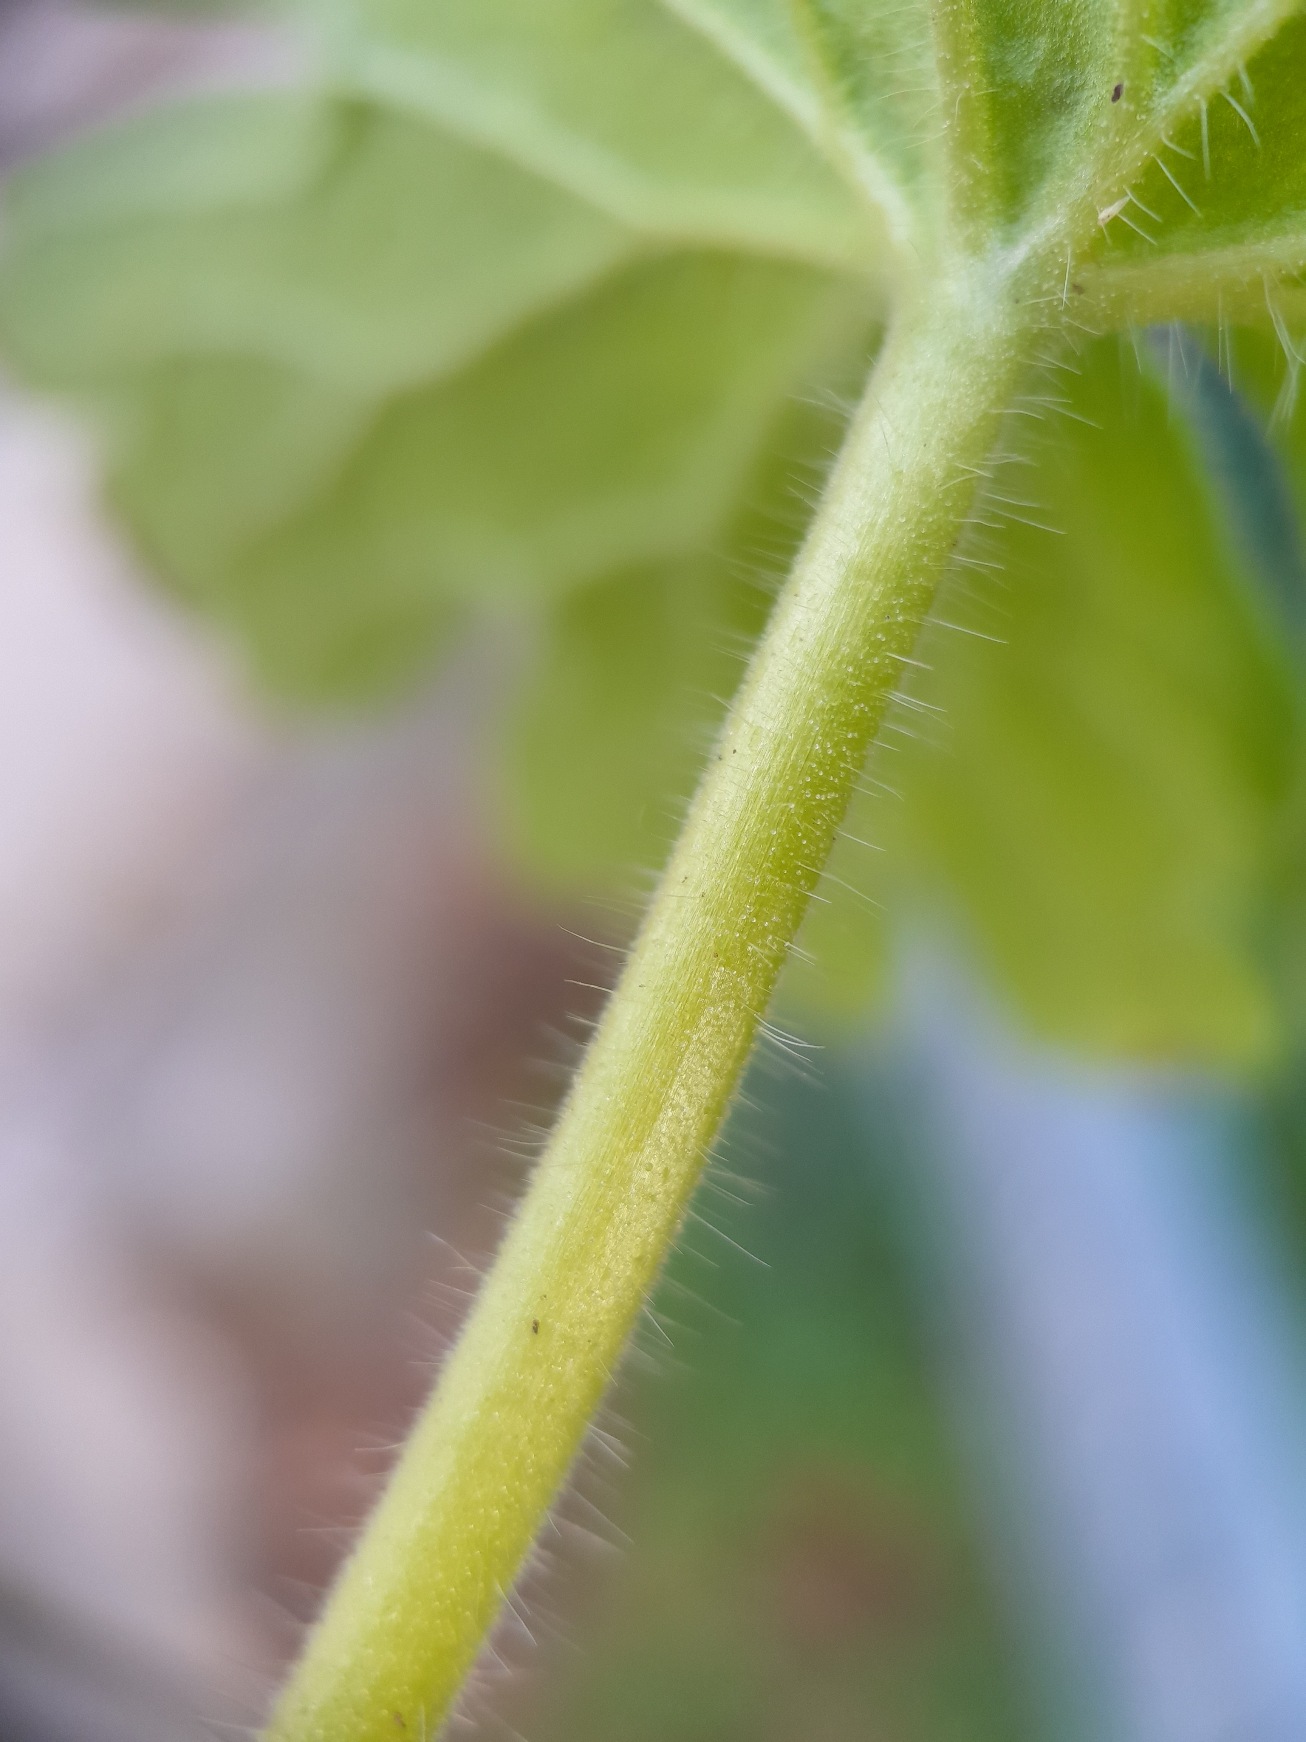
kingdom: Plantae
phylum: Tracheophyta
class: Magnoliopsida
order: Geraniales
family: Geraniaceae
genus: Geranium
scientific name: Geranium pyrenaicum
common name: Pyrenæisk storkenæb
